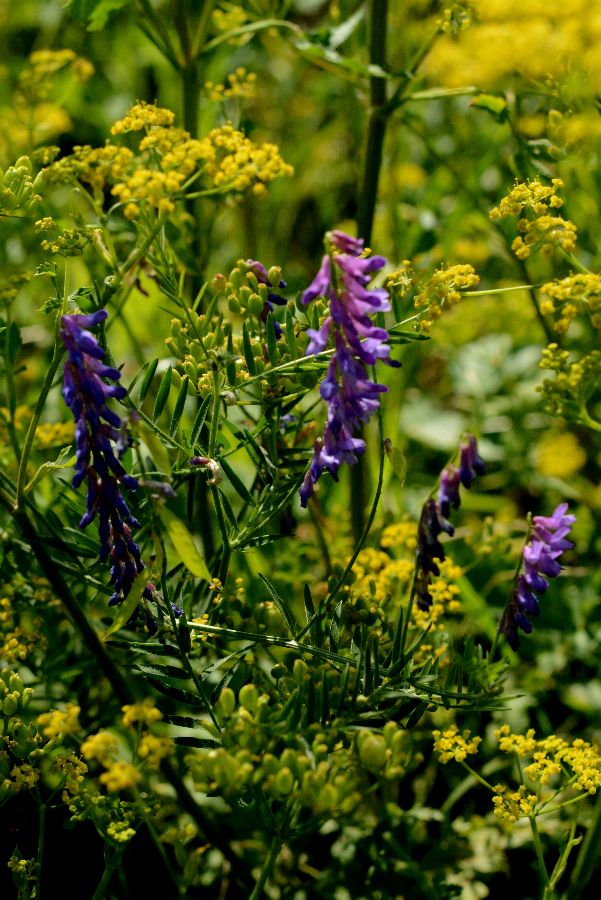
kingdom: Plantae
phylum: Tracheophyta
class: Magnoliopsida
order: Fabales
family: Fabaceae
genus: Vicia
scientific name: Vicia cracca
